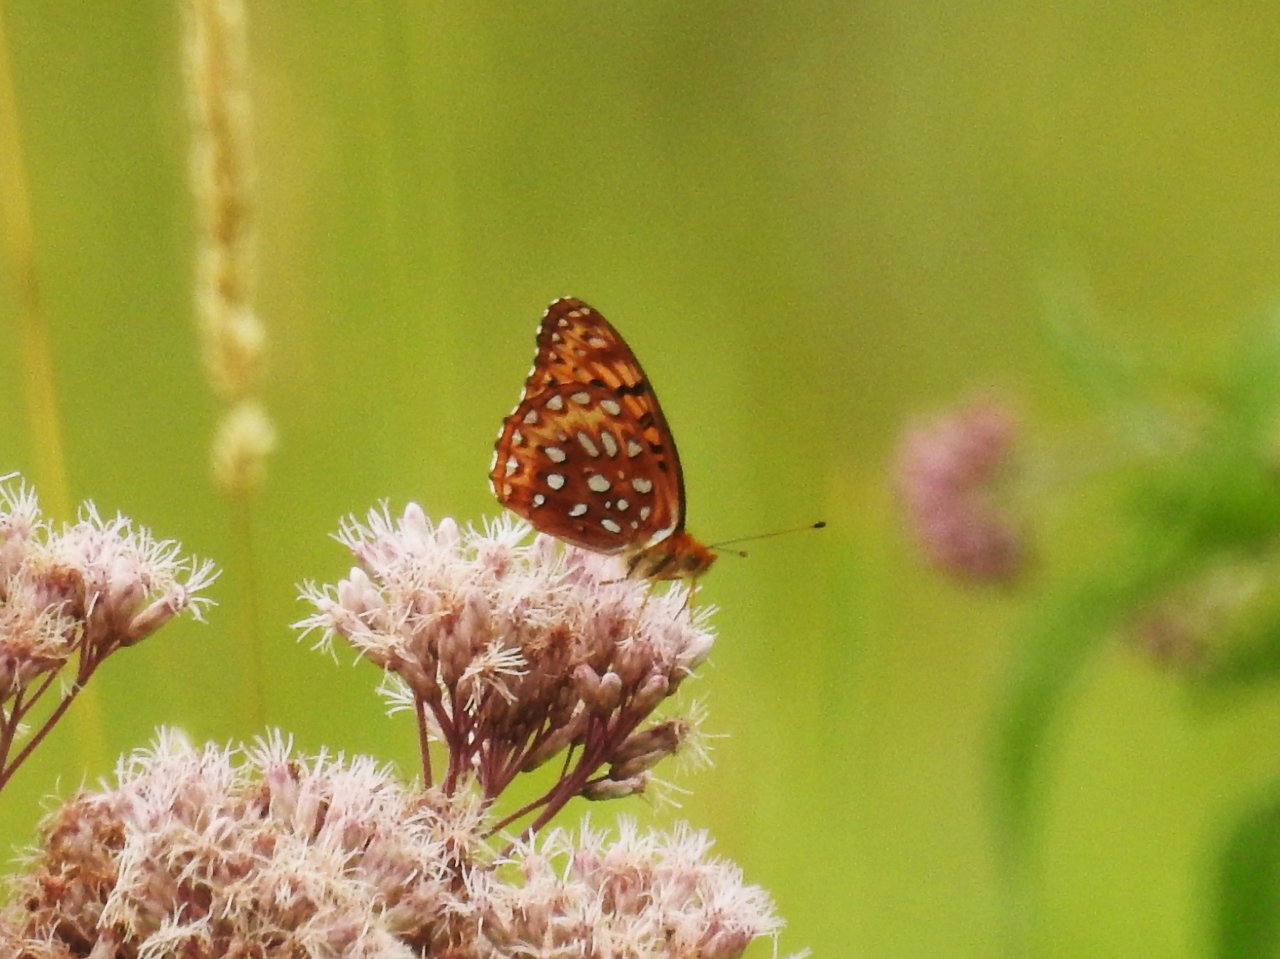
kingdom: Animalia
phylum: Arthropoda
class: Insecta
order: Lepidoptera
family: Nymphalidae
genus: Speyeria
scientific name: Speyeria aphrodite
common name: Aphrodite Fritillary
